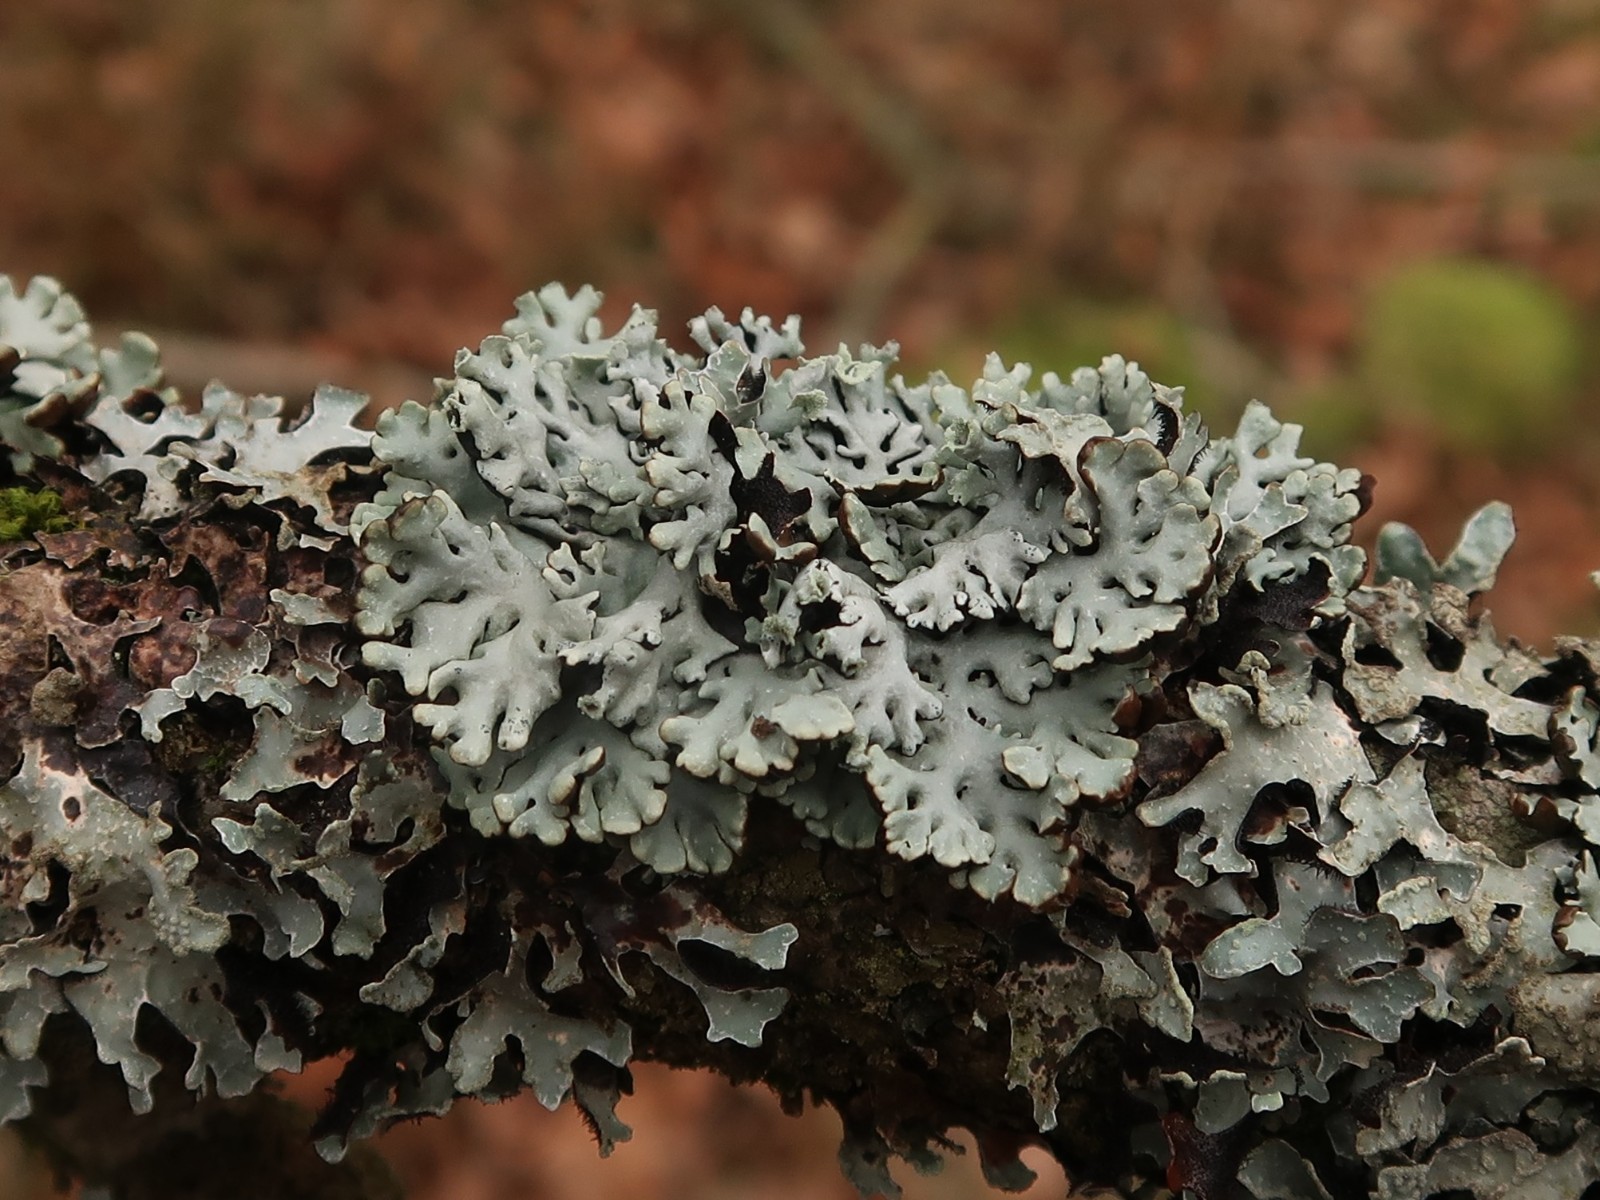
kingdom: Fungi
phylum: Ascomycota
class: Lecanoromycetes
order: Lecanorales
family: Parmeliaceae
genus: Hypogymnia
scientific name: Hypogymnia physodes
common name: almindelig kvistlav
